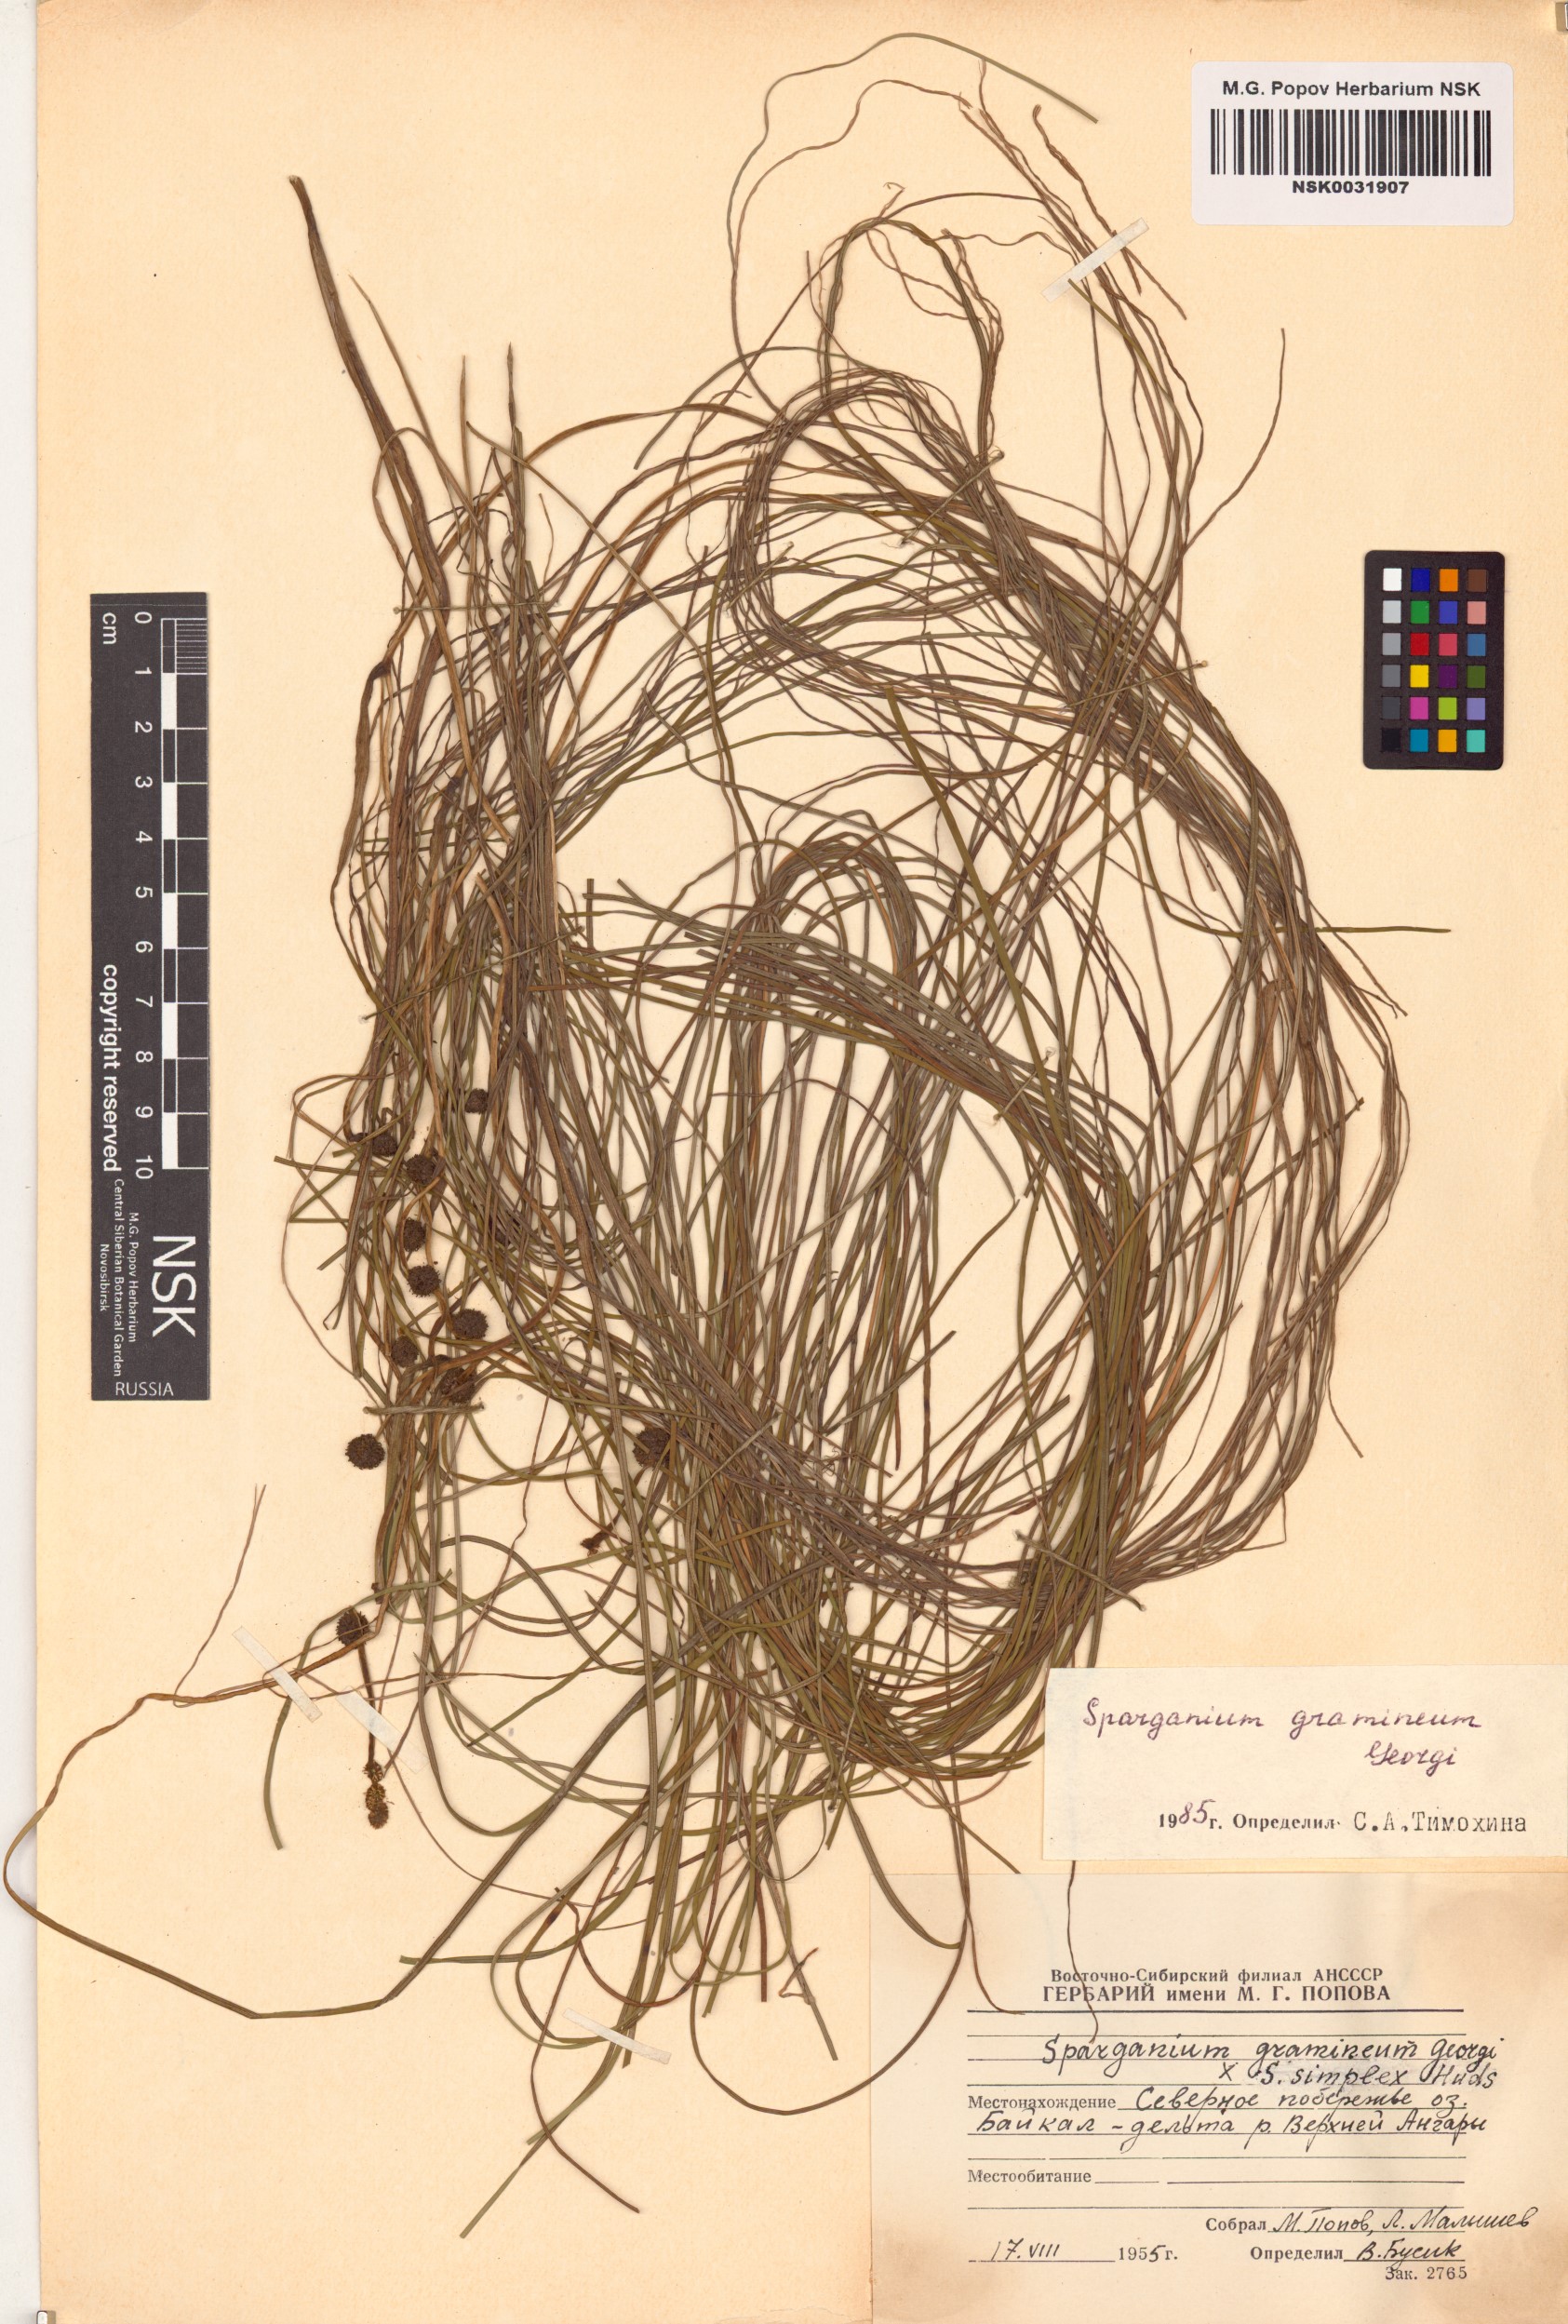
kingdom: Plantae
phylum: Tracheophyta
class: Liliopsida
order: Poales
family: Typhaceae
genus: Sparganium
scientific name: Sparganium gramineum
